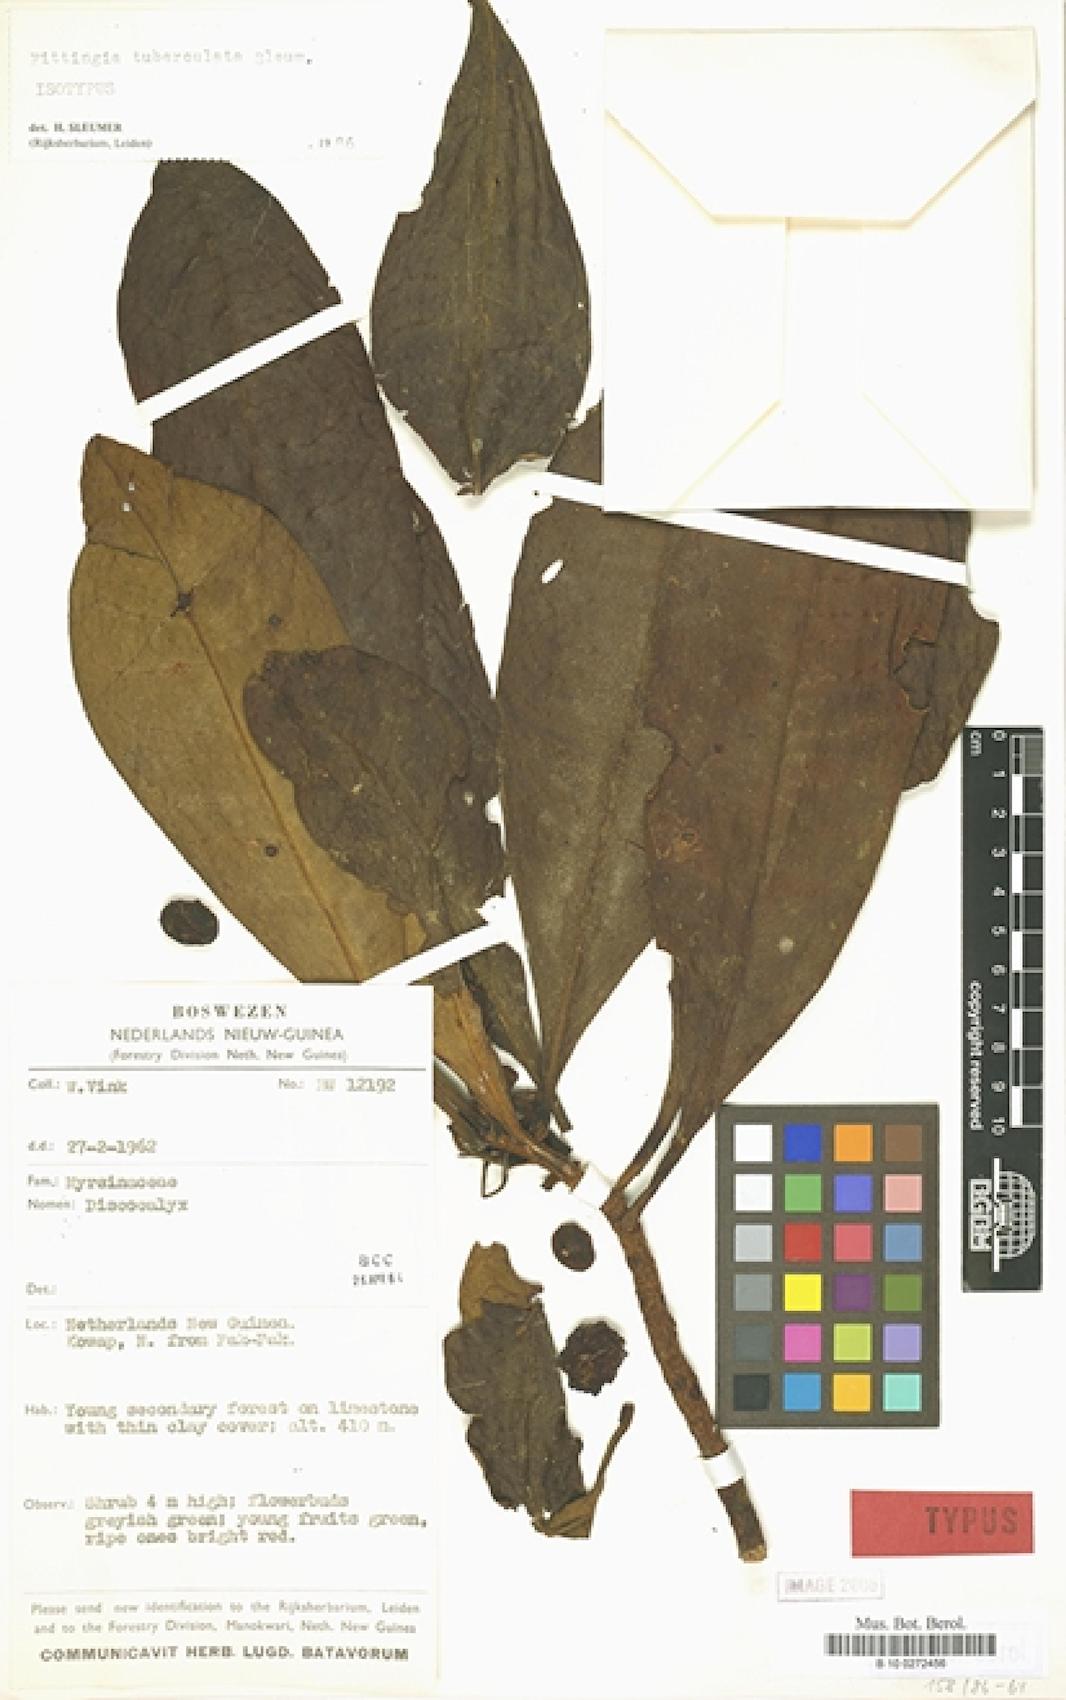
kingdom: Plantae
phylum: Tracheophyta
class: Magnoliopsida
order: Ericales
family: Primulaceae
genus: Fittingia
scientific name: Fittingia tuberculata
